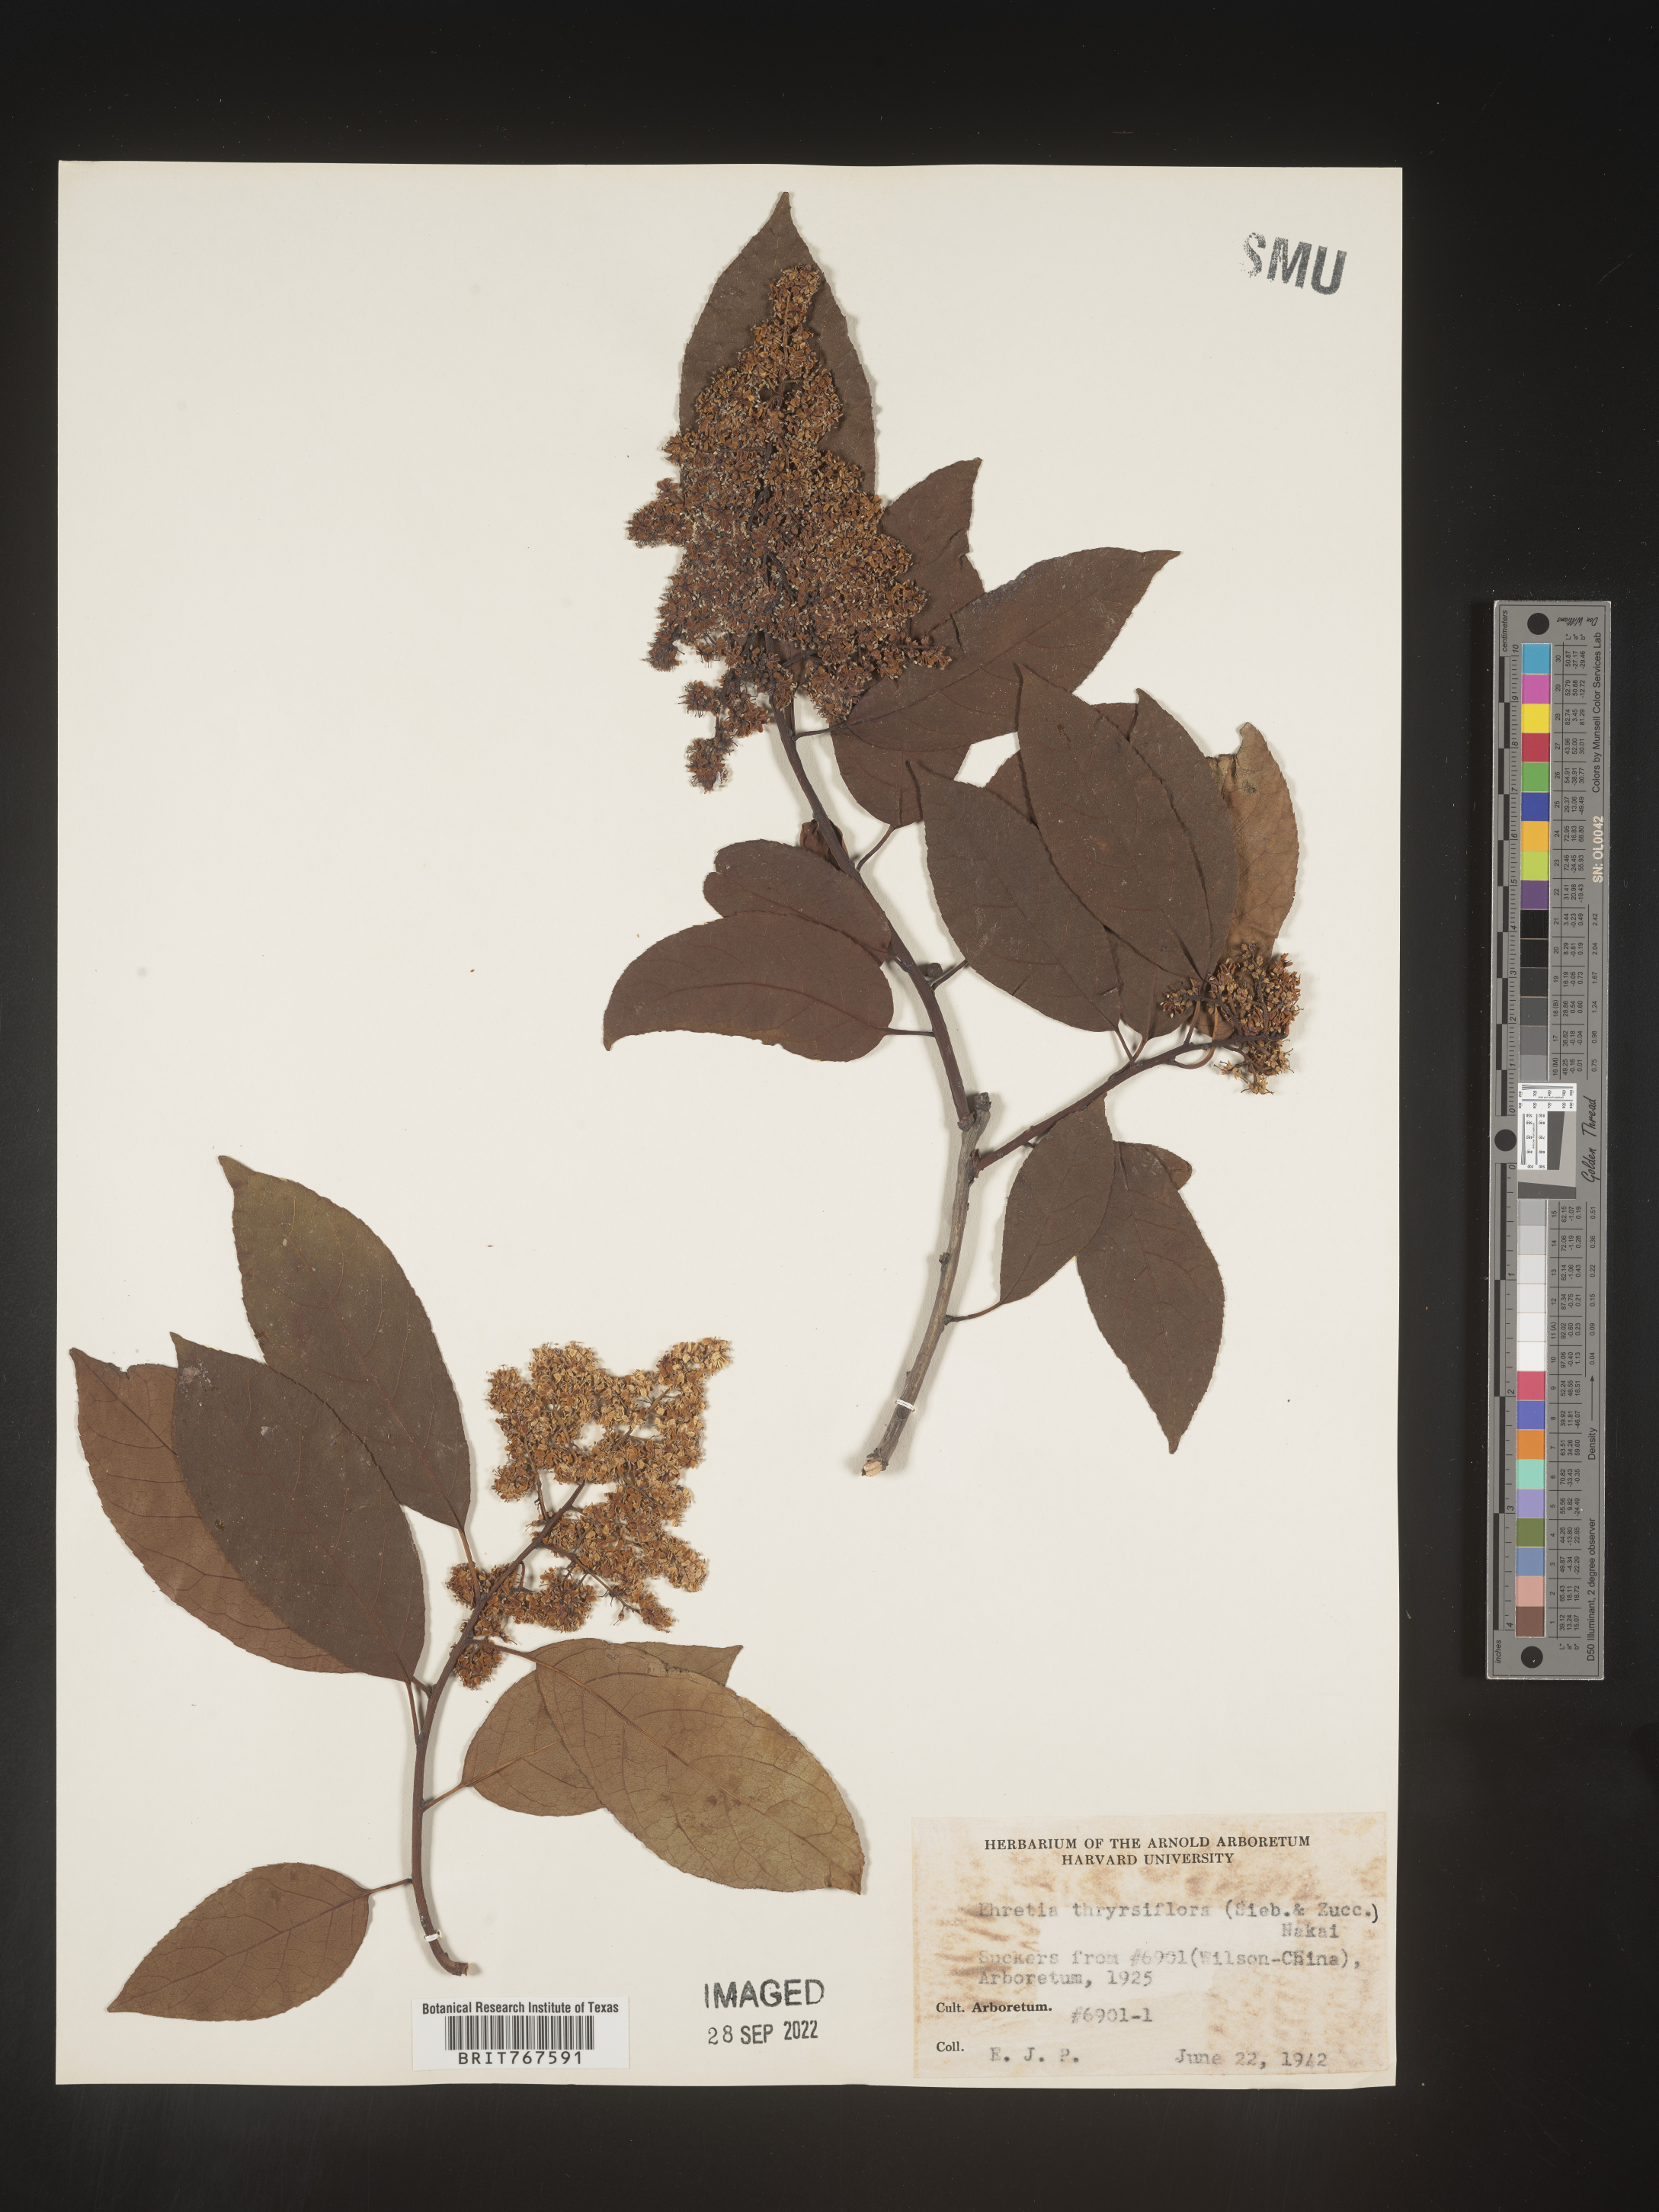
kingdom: Plantae
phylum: Tracheophyta
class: Magnoliopsida
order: Boraginales
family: Ehretiaceae
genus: Ehretia
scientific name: Ehretia
